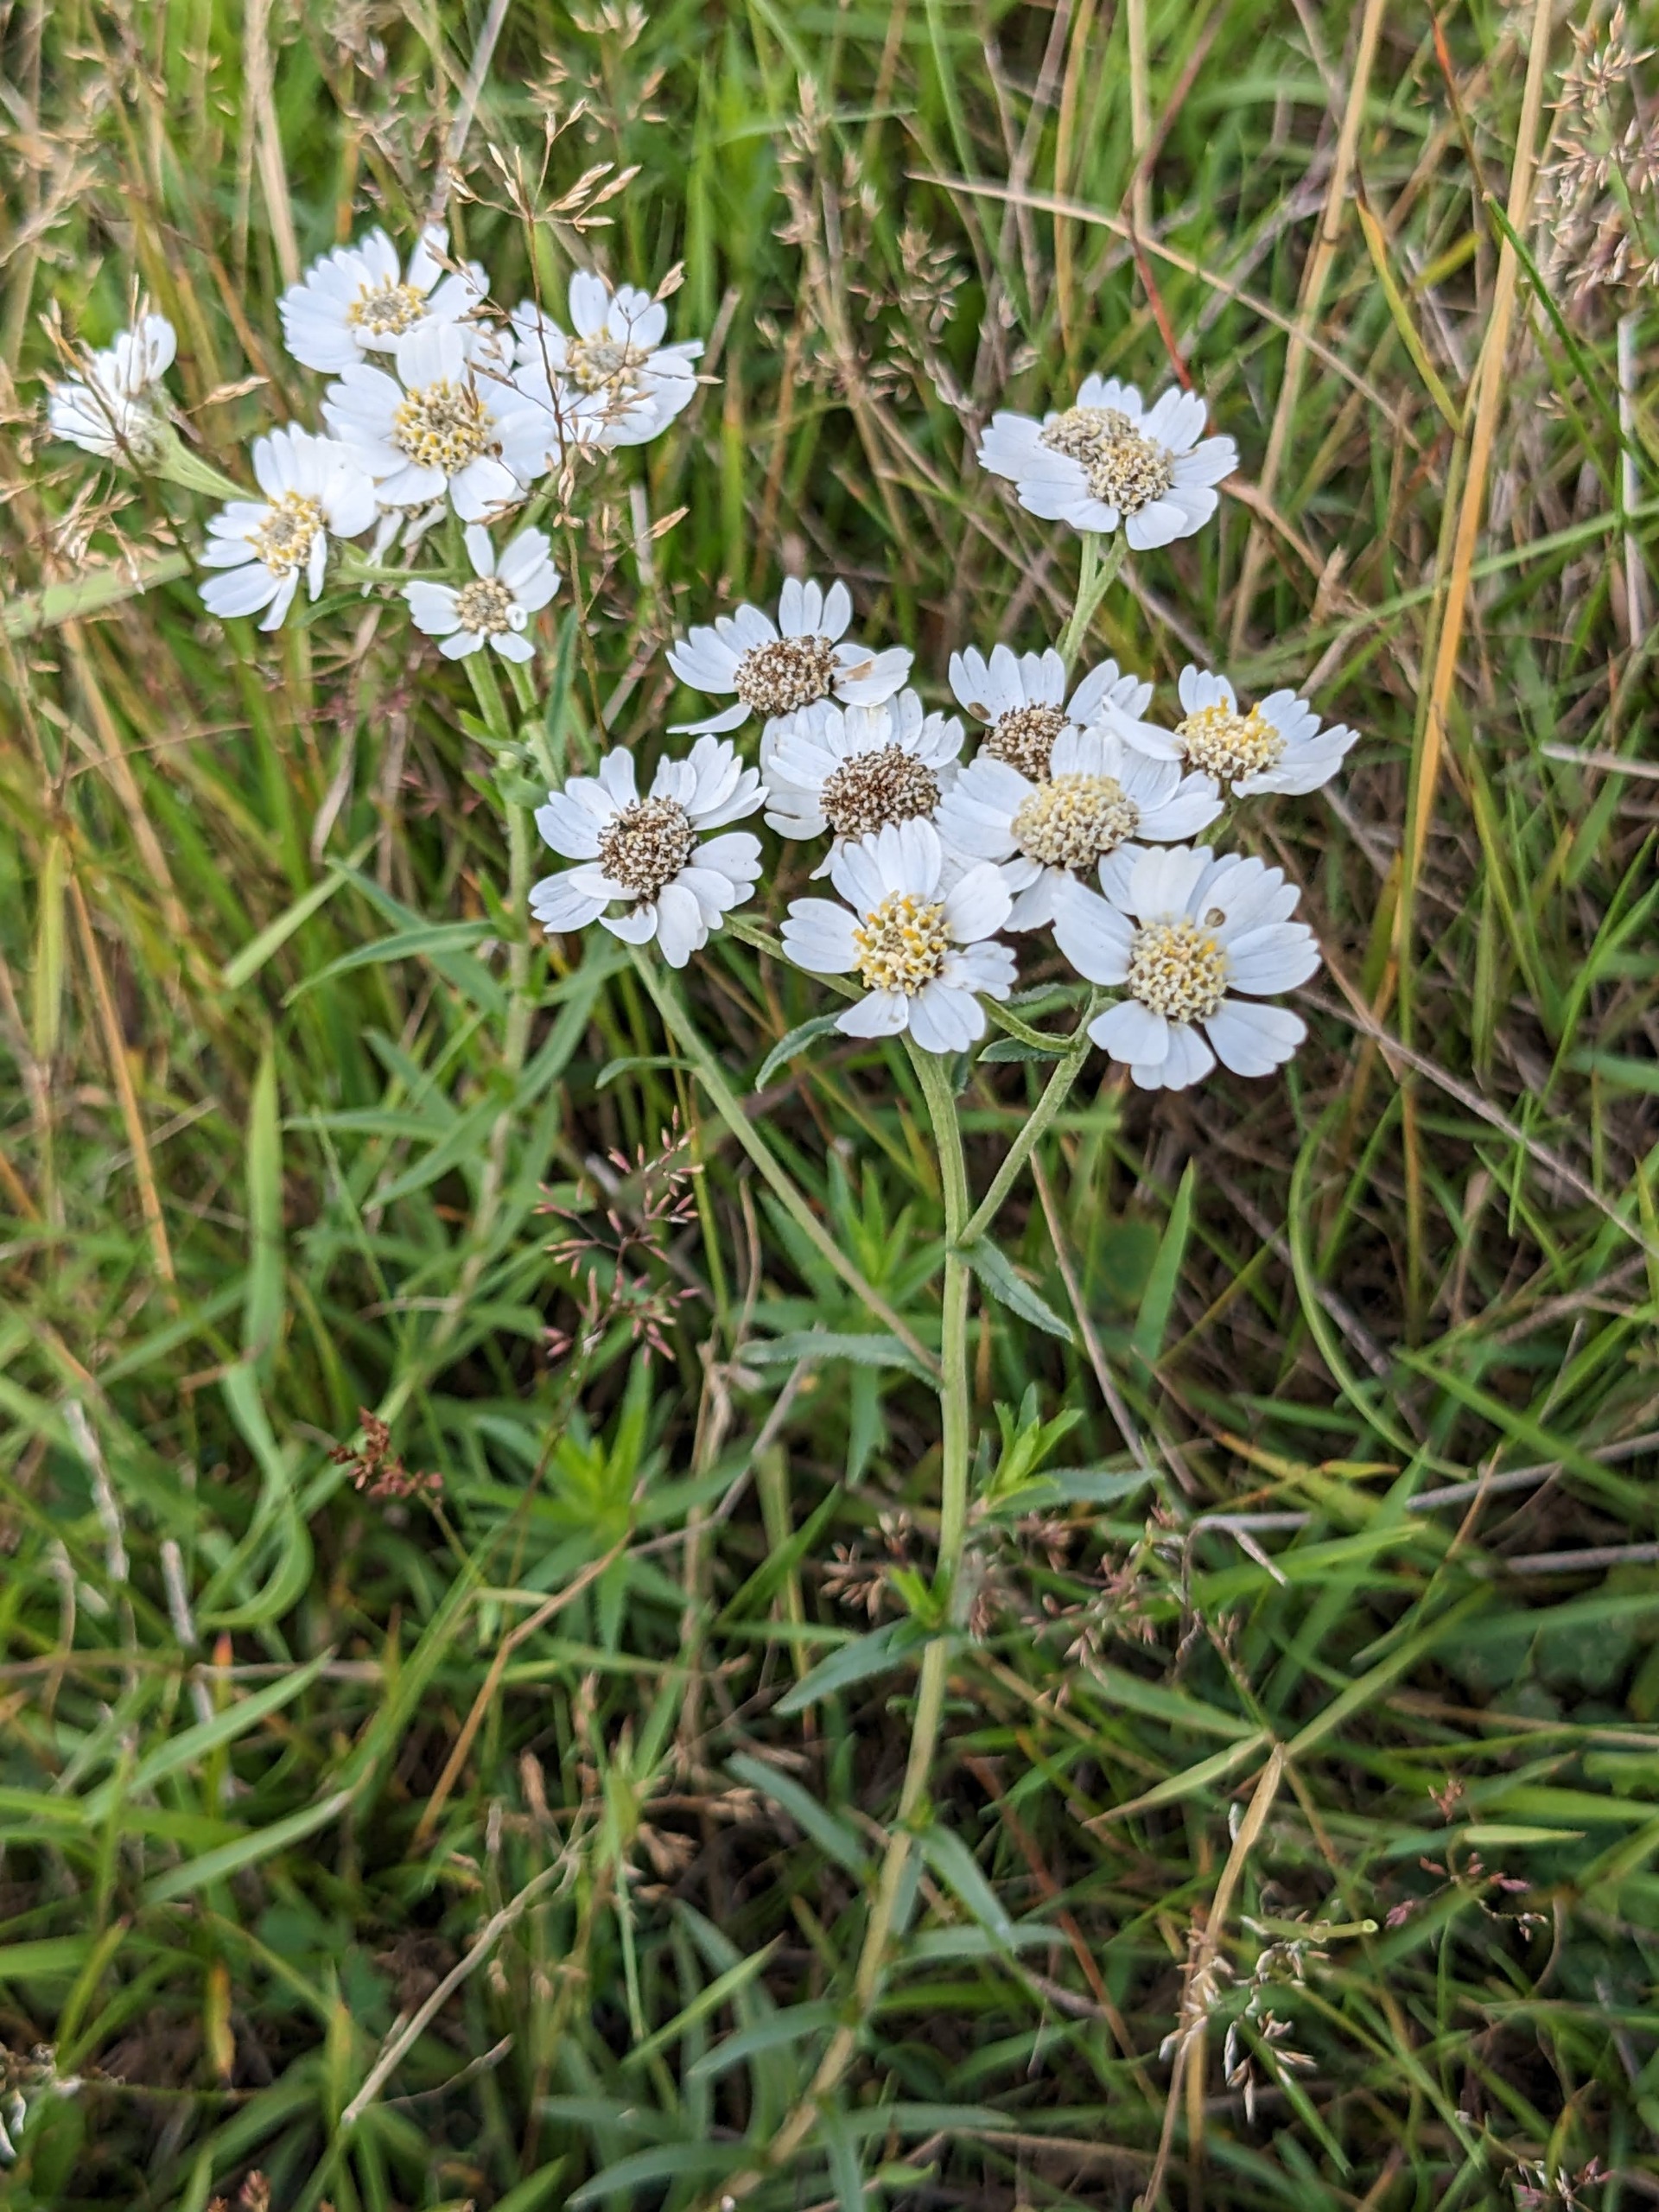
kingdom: Plantae
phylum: Tracheophyta
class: Magnoliopsida
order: Asterales
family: Asteraceae
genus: Achillea
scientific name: Achillea ptarmica
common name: Nyse-røllike
